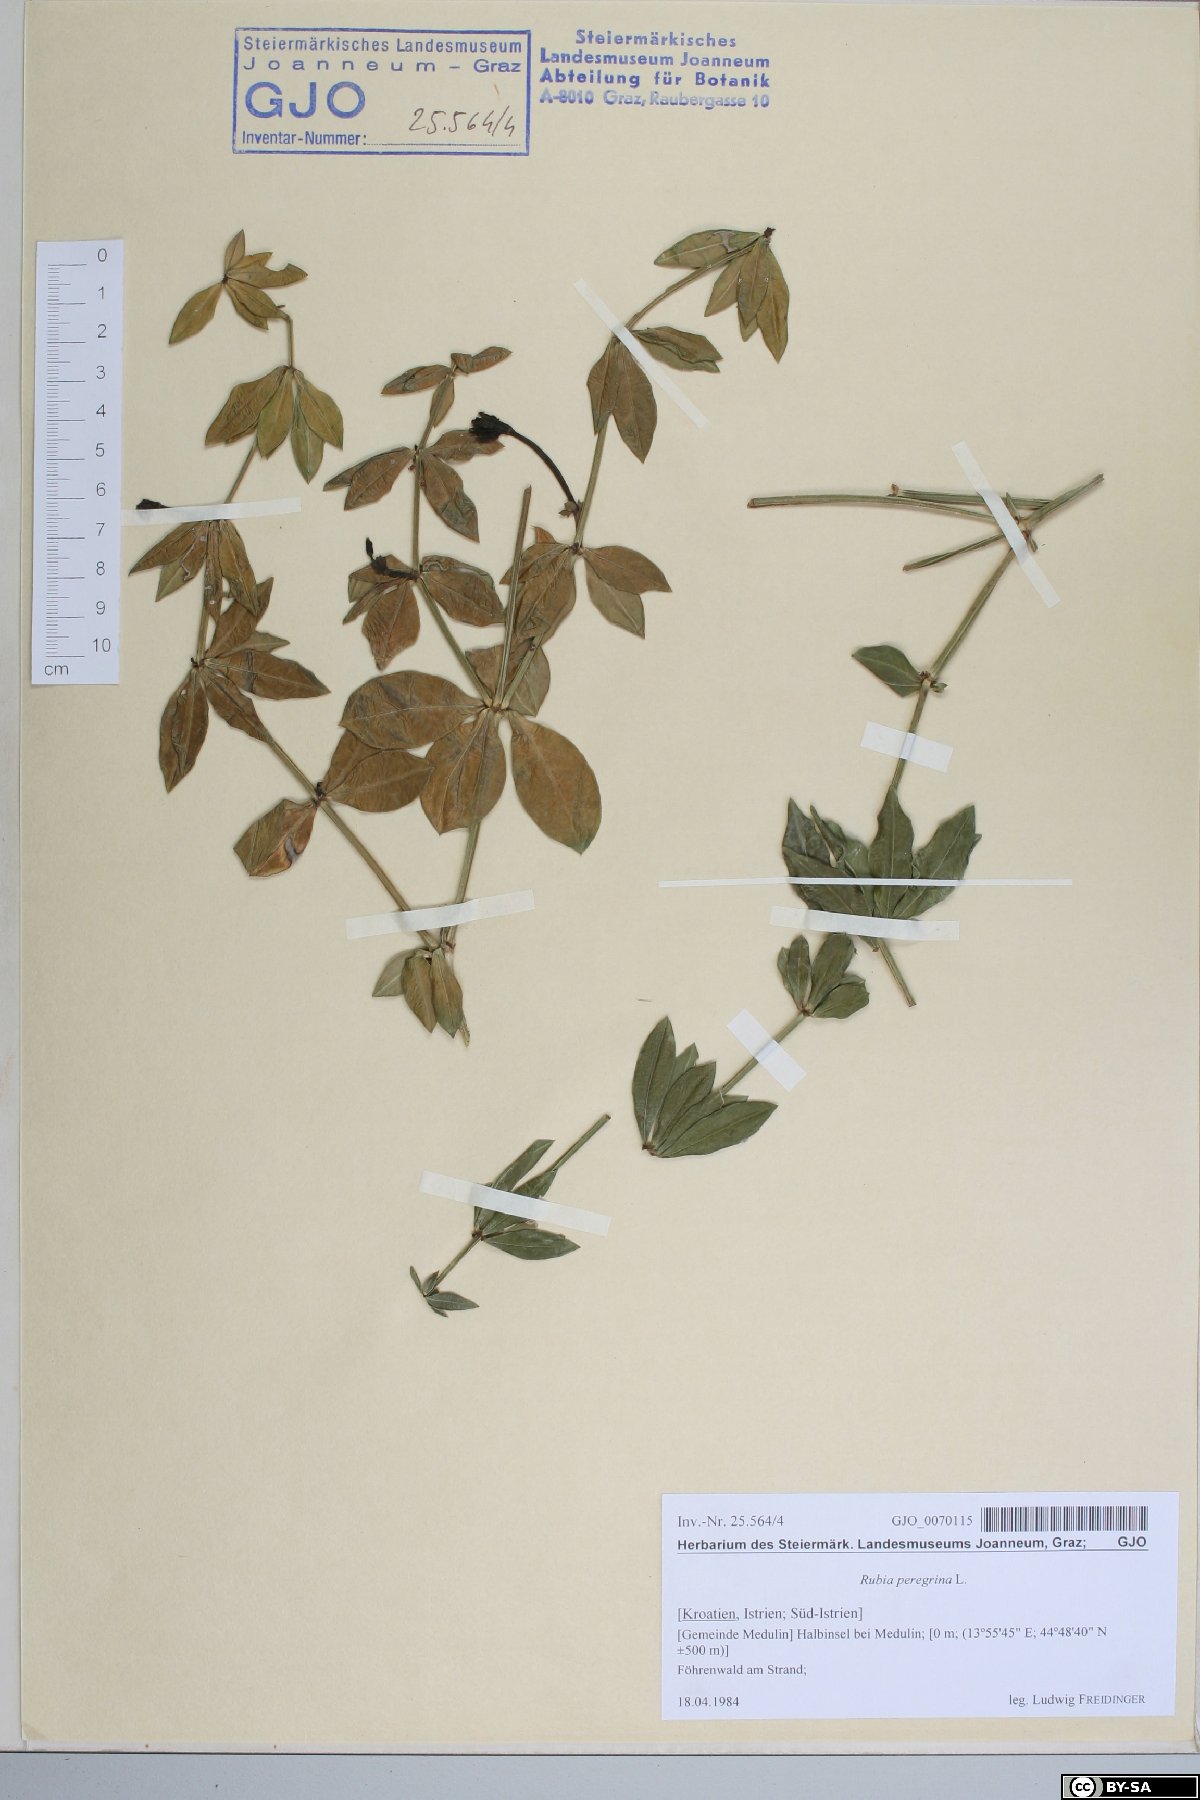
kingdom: Plantae
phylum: Tracheophyta
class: Magnoliopsida
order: Gentianales
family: Rubiaceae
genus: Rubia
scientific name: Rubia peregrina
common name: Wild madder
